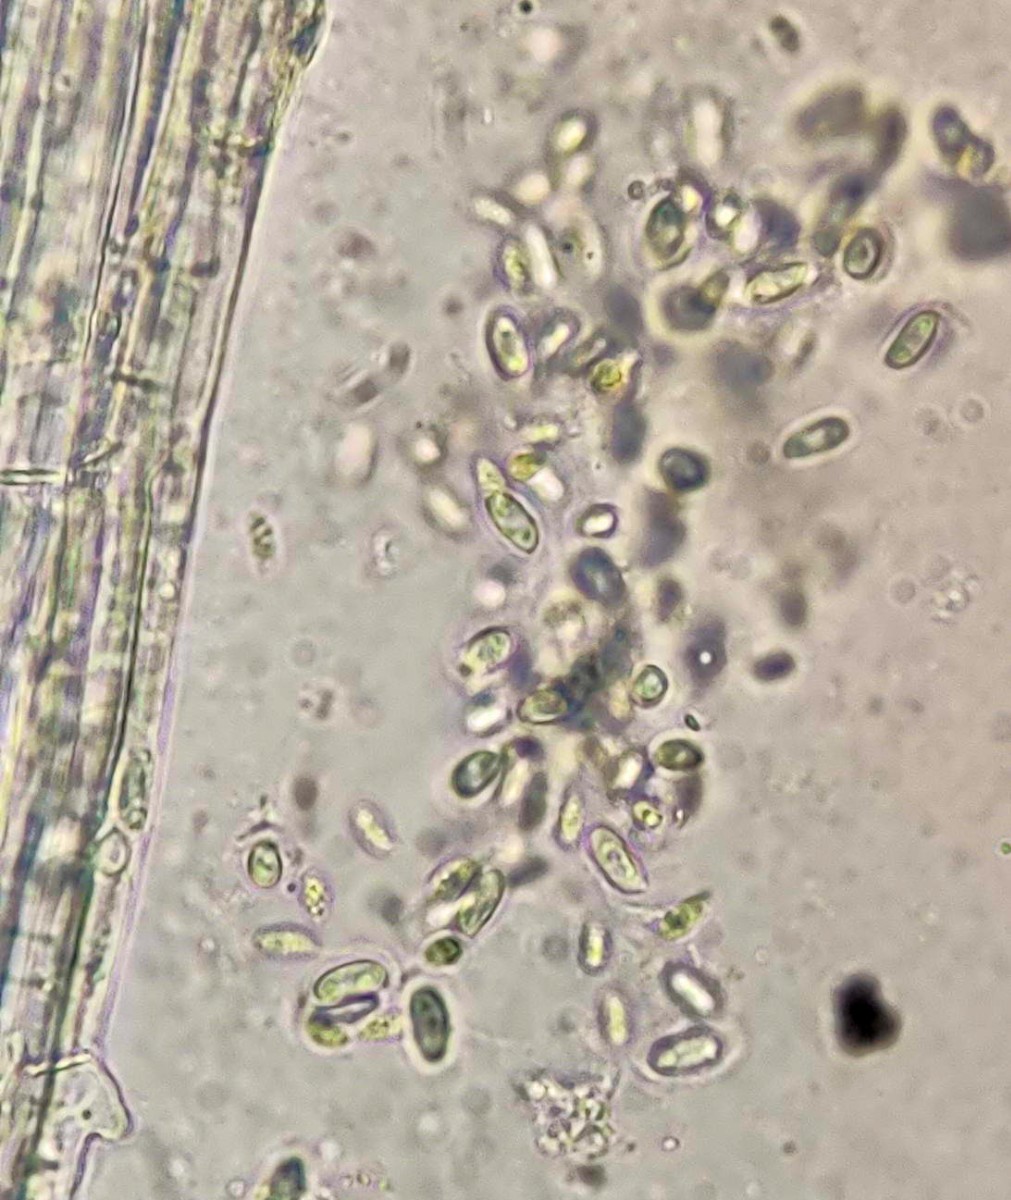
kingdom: Fungi
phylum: Basidiomycota
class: Agaricomycetes
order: Agaricales
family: Physalacriaceae
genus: Flammulina
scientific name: Flammulina populicola
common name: poppel-fløjlsfod
